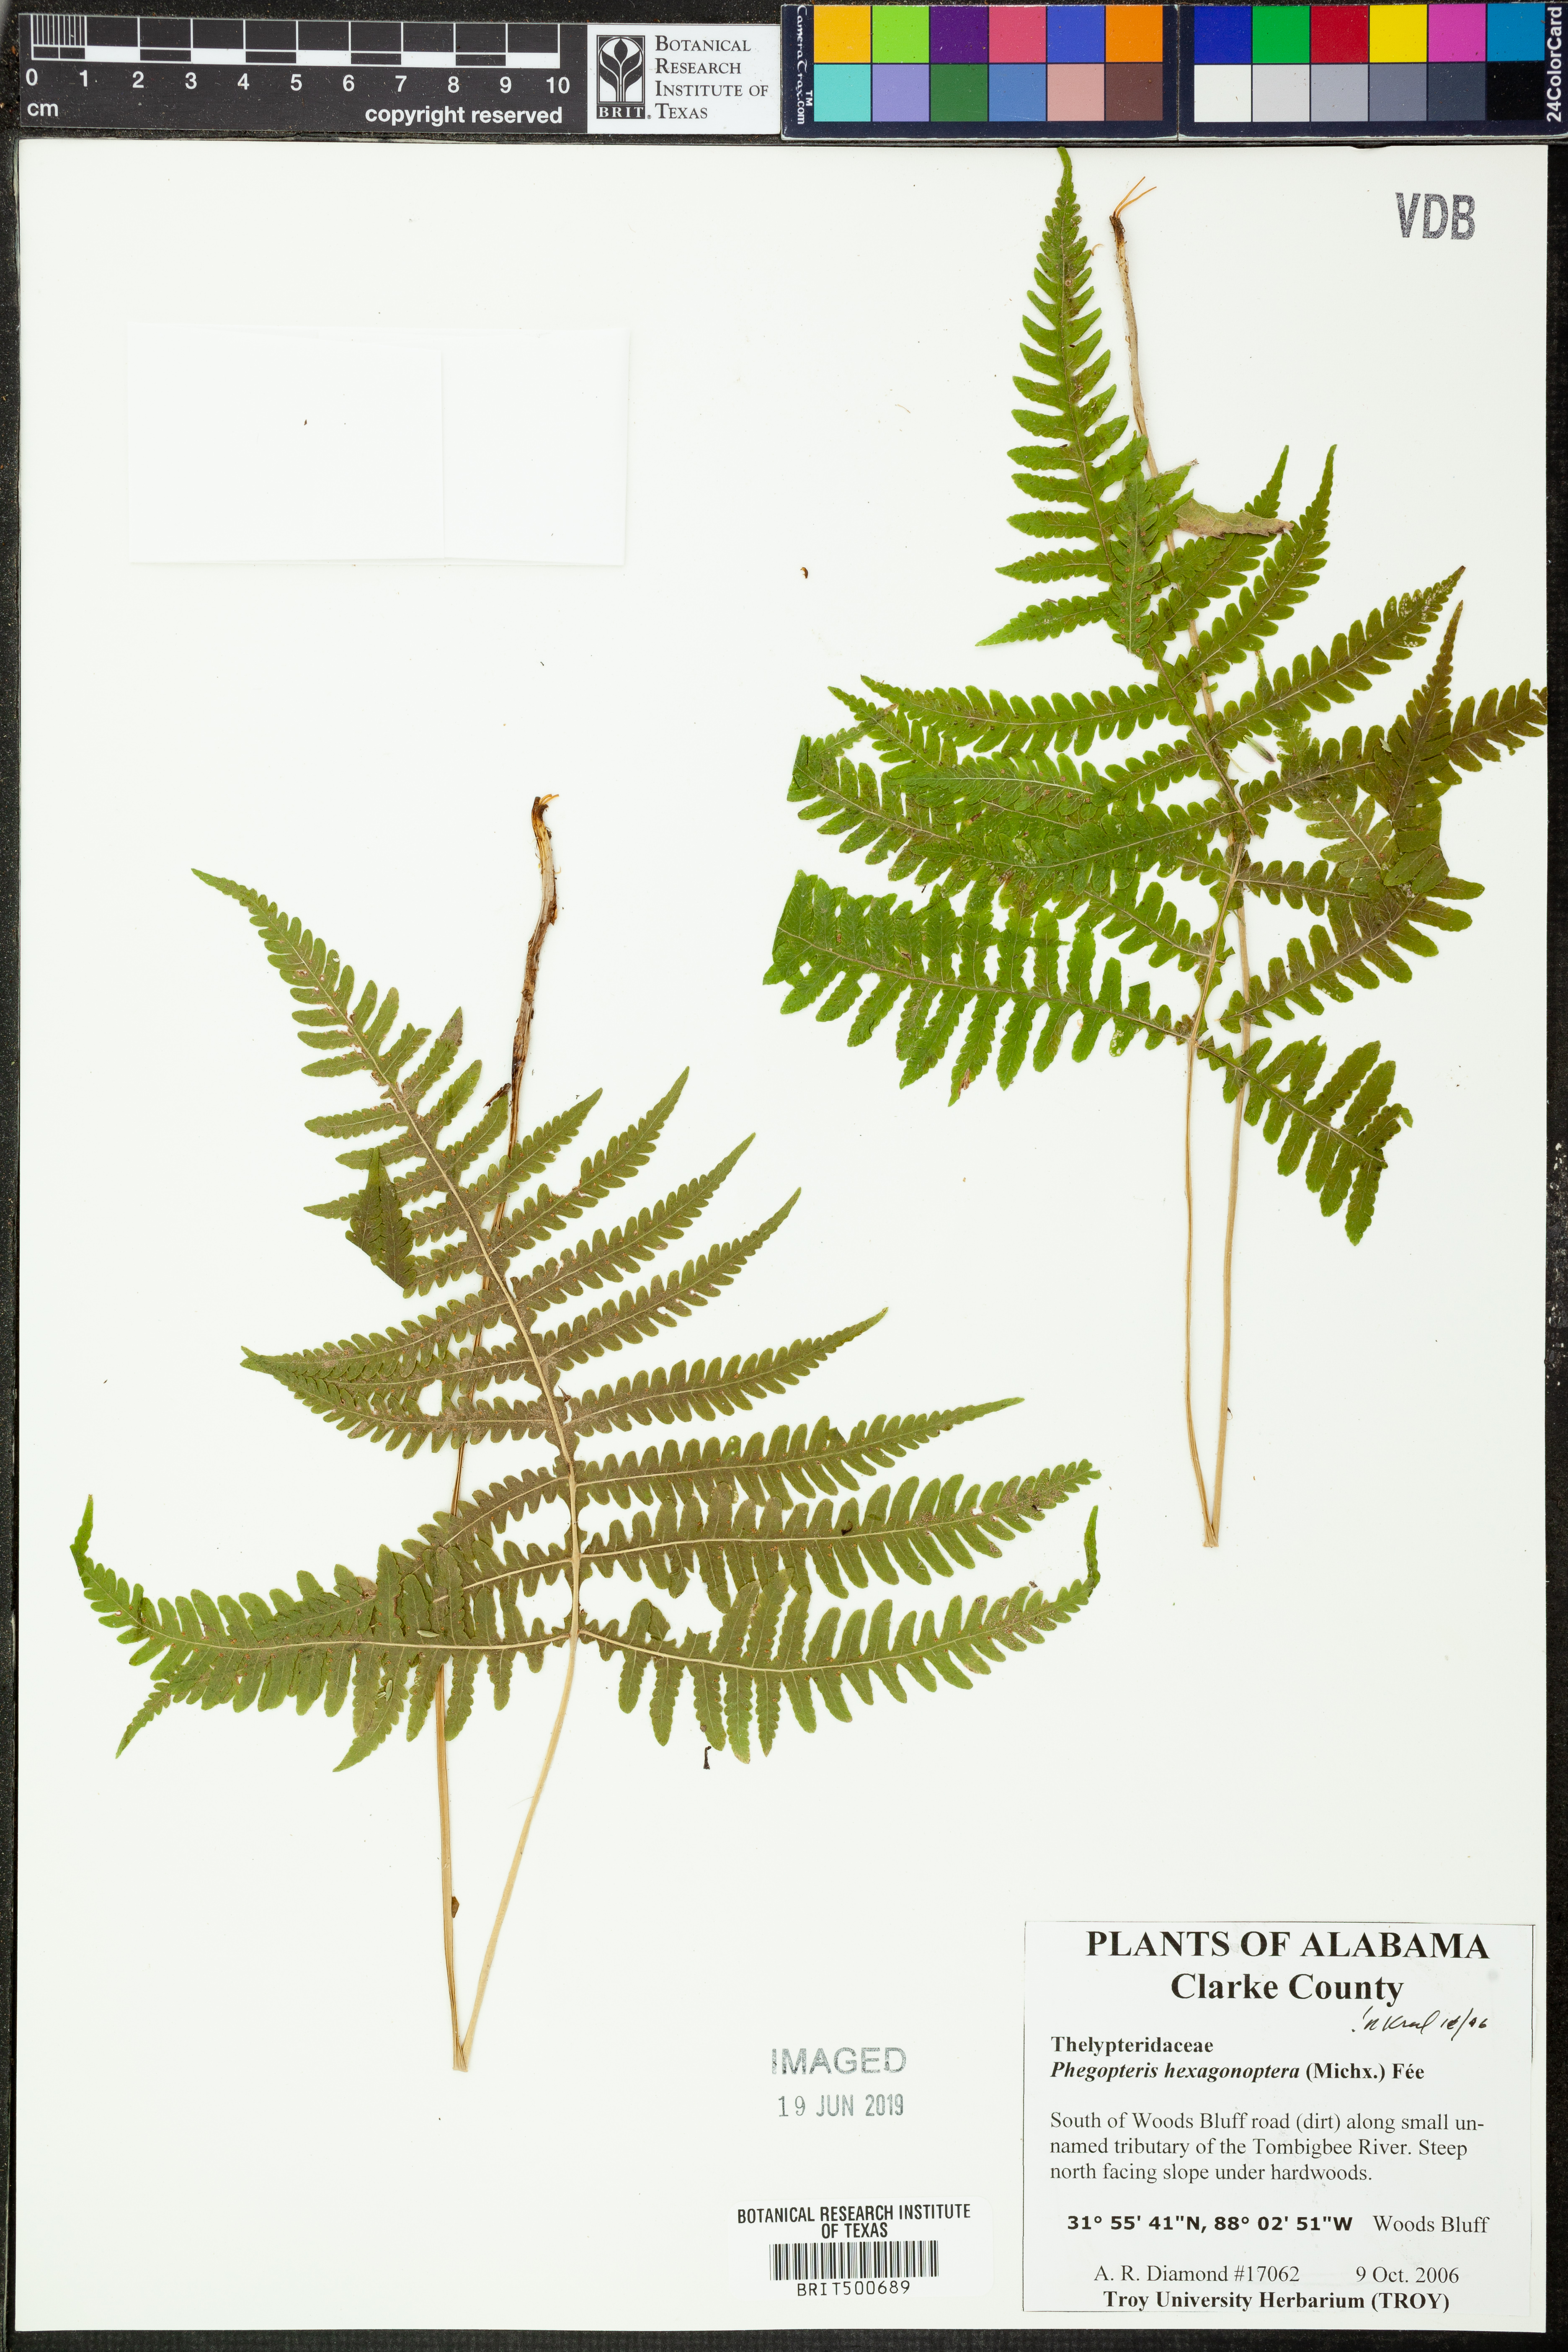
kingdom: Plantae
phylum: Tracheophyta
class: Polypodiopsida
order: Polypodiales
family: Thelypteridaceae
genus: Phegopteris
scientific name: Phegopteris hexagonoptera
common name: Broad beech fern
